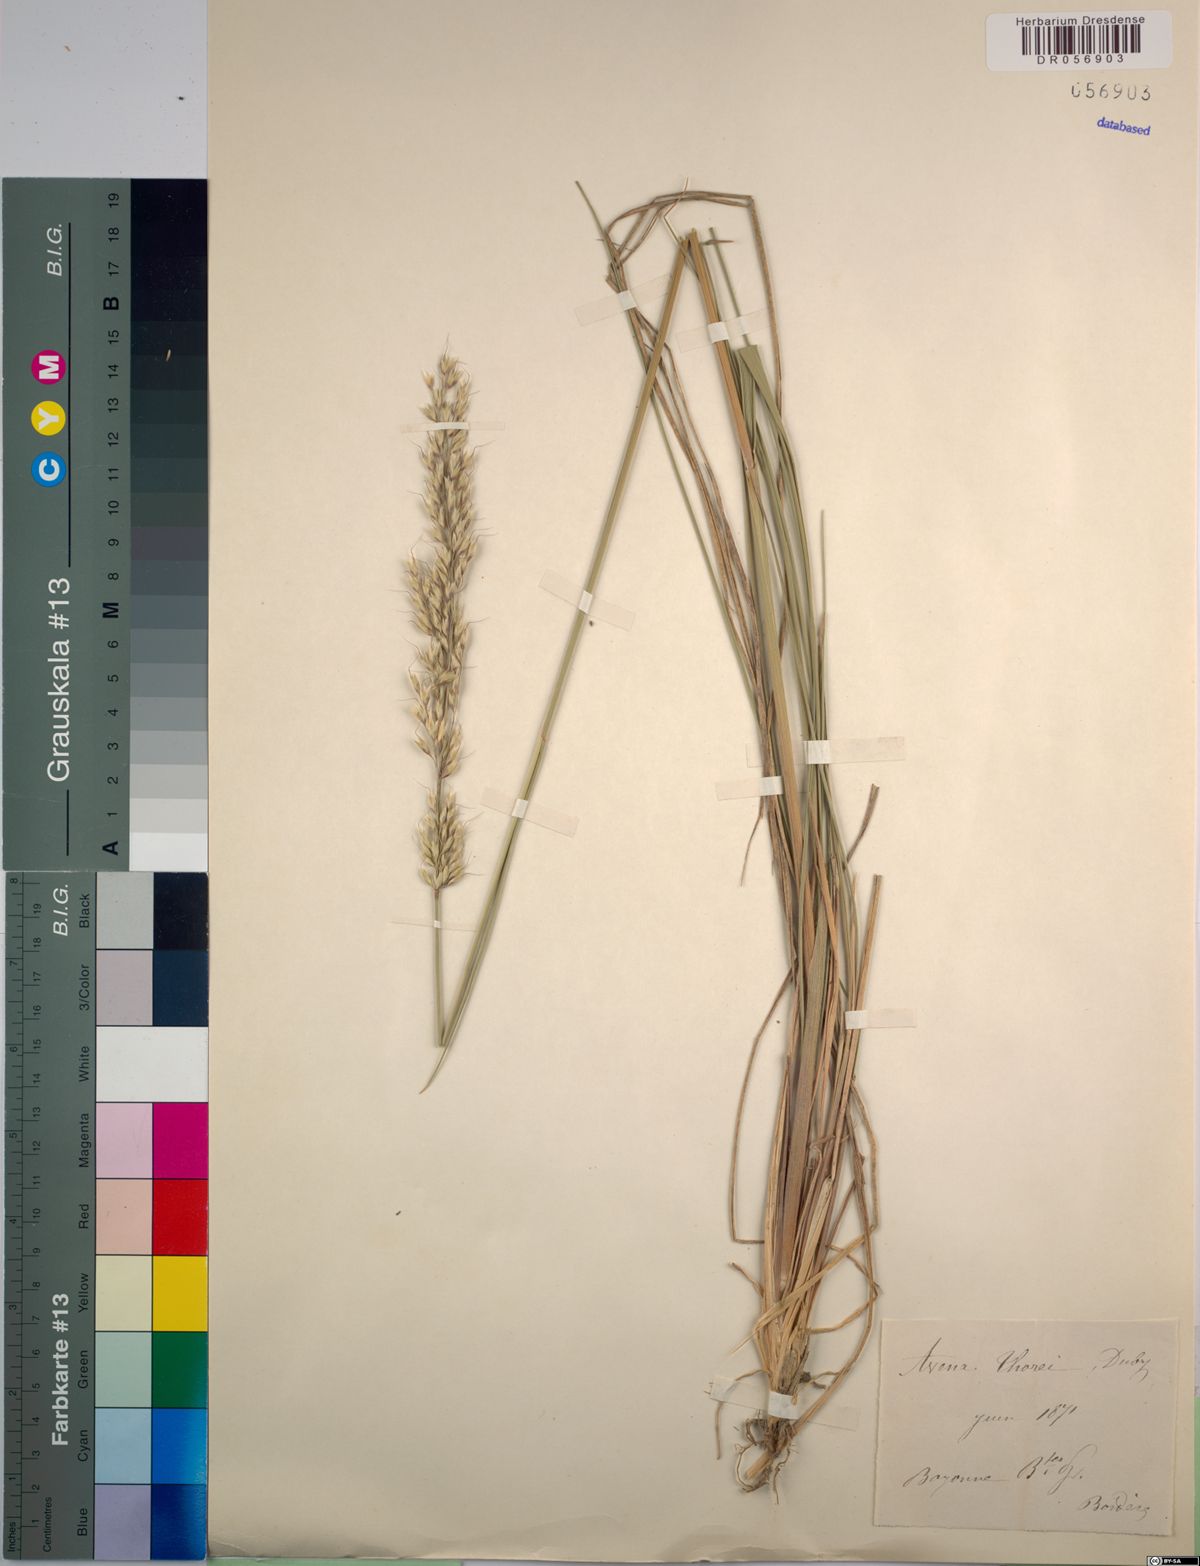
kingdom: Plantae
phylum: Tracheophyta
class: Liliopsida
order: Poales
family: Poaceae
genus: Arrhenatherum
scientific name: Arrhenatherum longifolium
